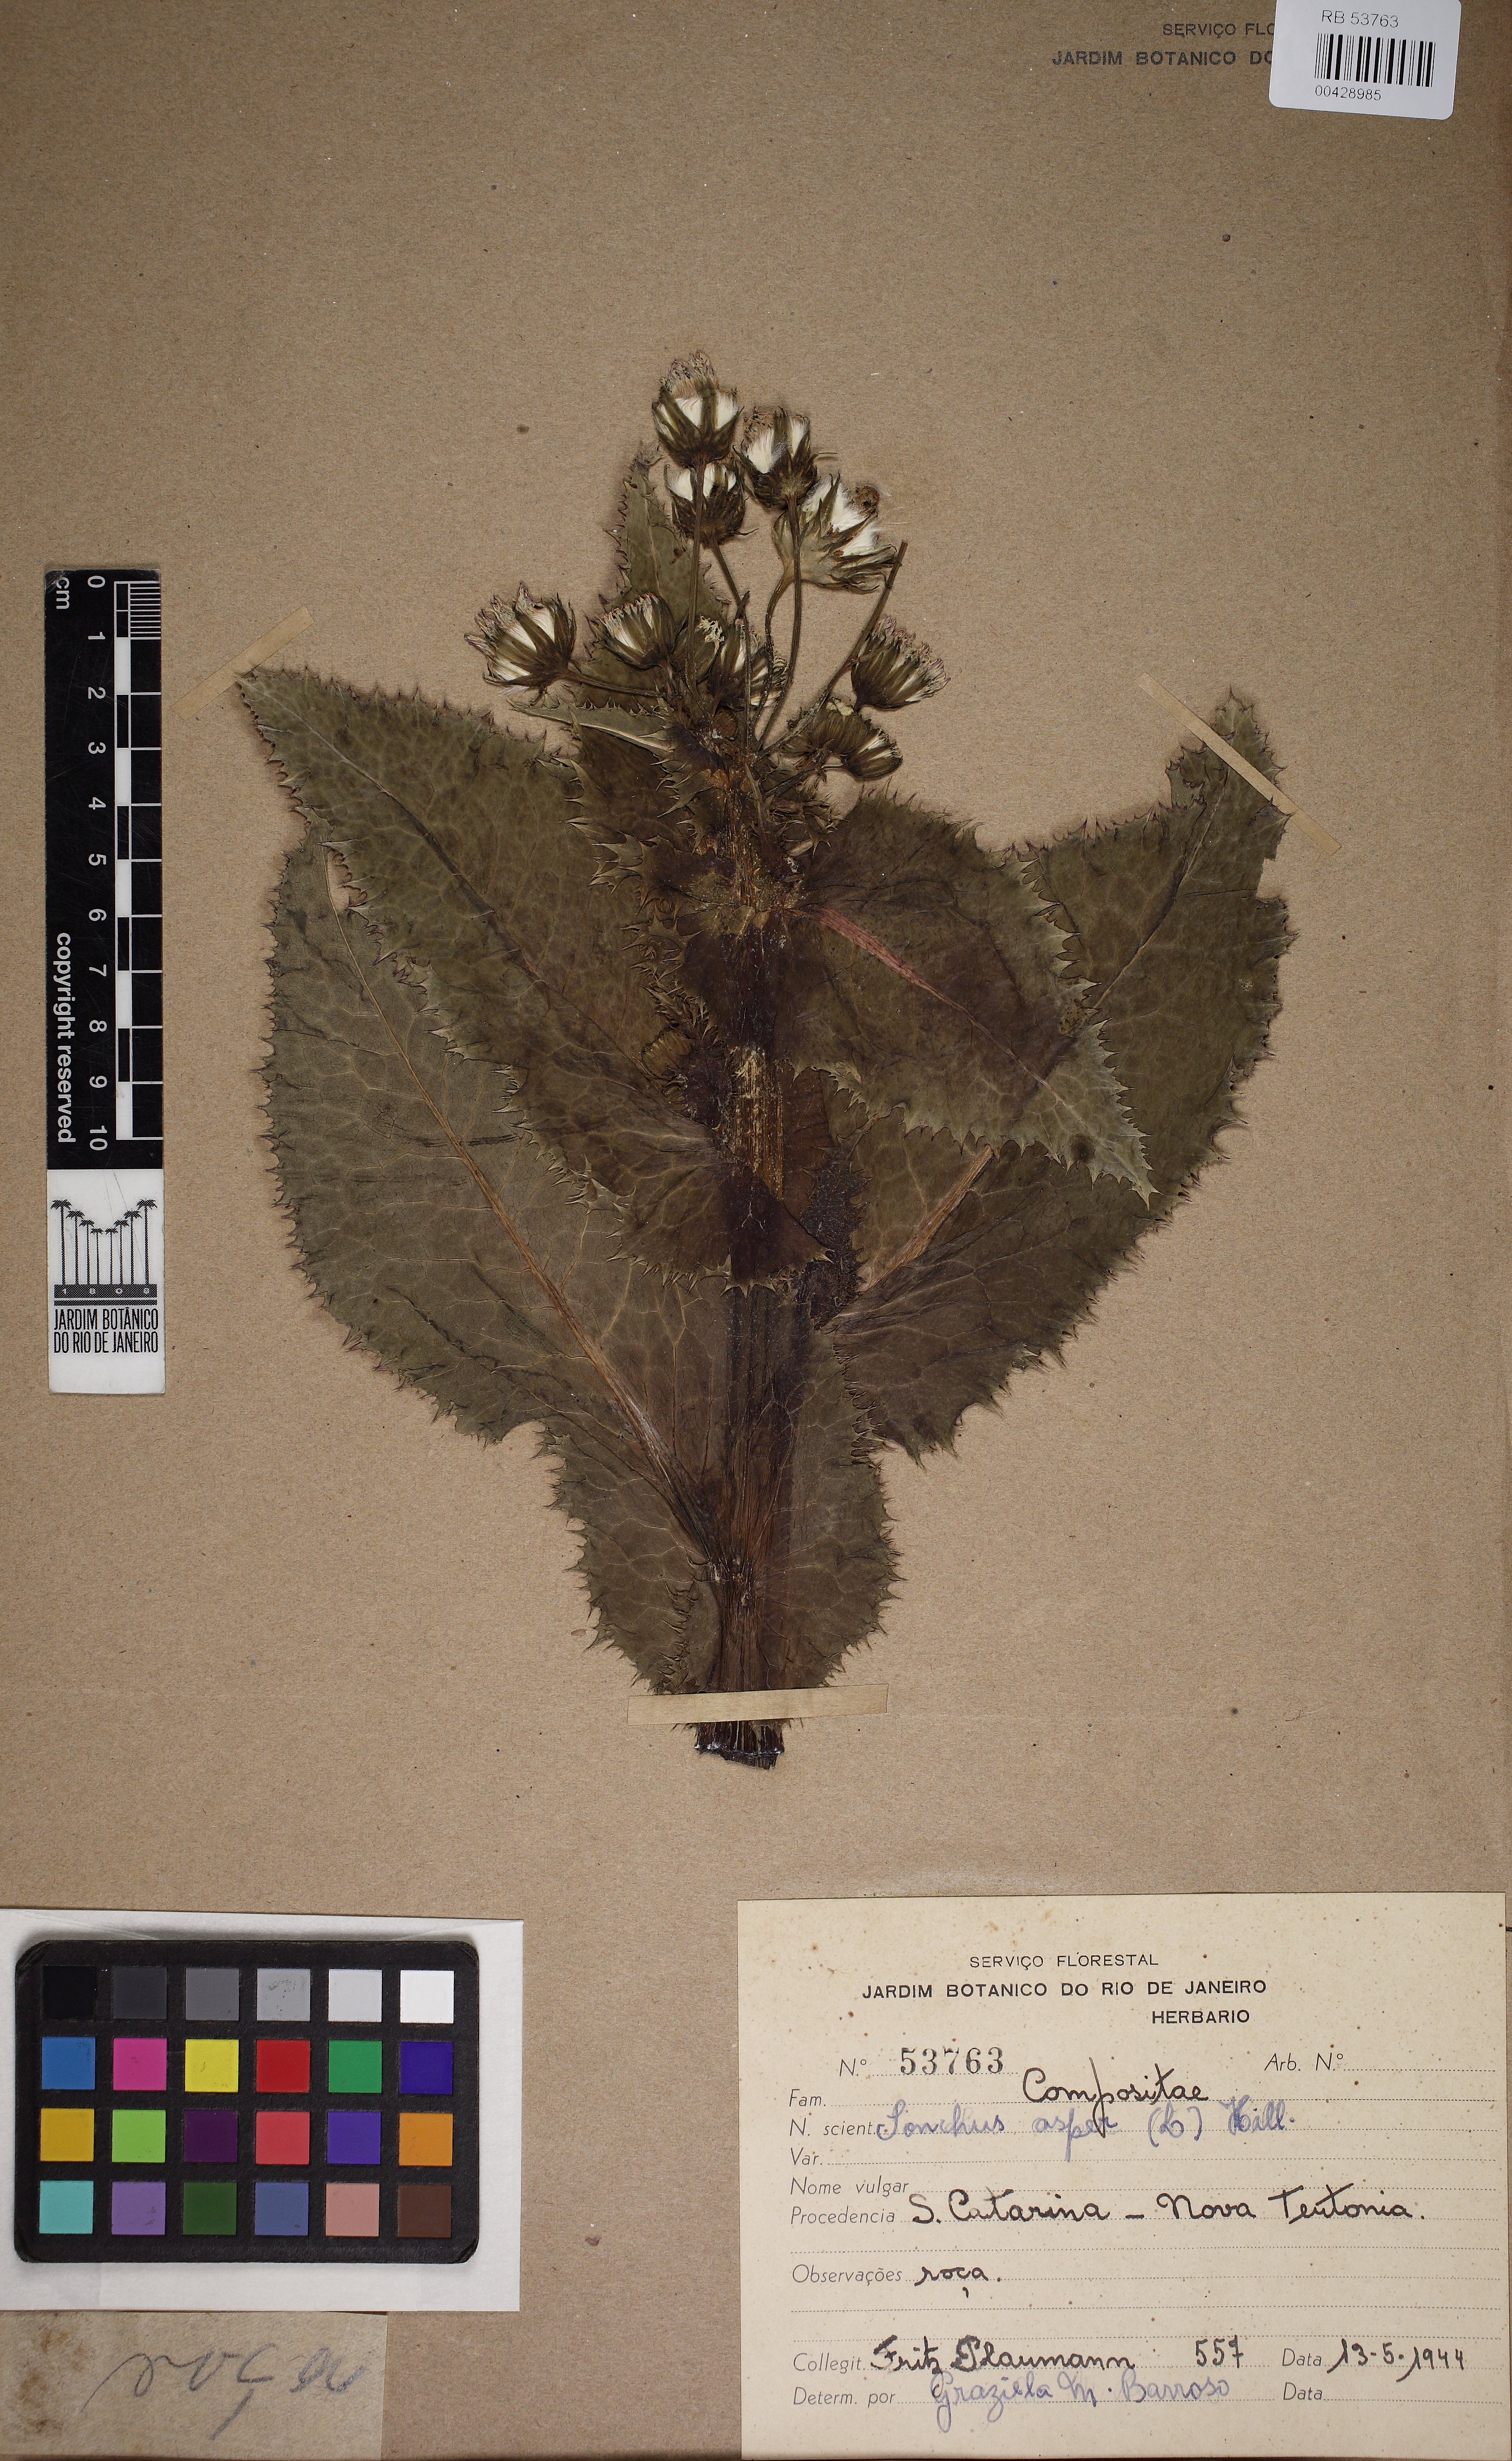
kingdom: Plantae
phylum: Tracheophyta
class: Magnoliopsida
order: Asterales
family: Asteraceae
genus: Sonchus
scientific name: Sonchus asper
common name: Prickly sow-thistle
